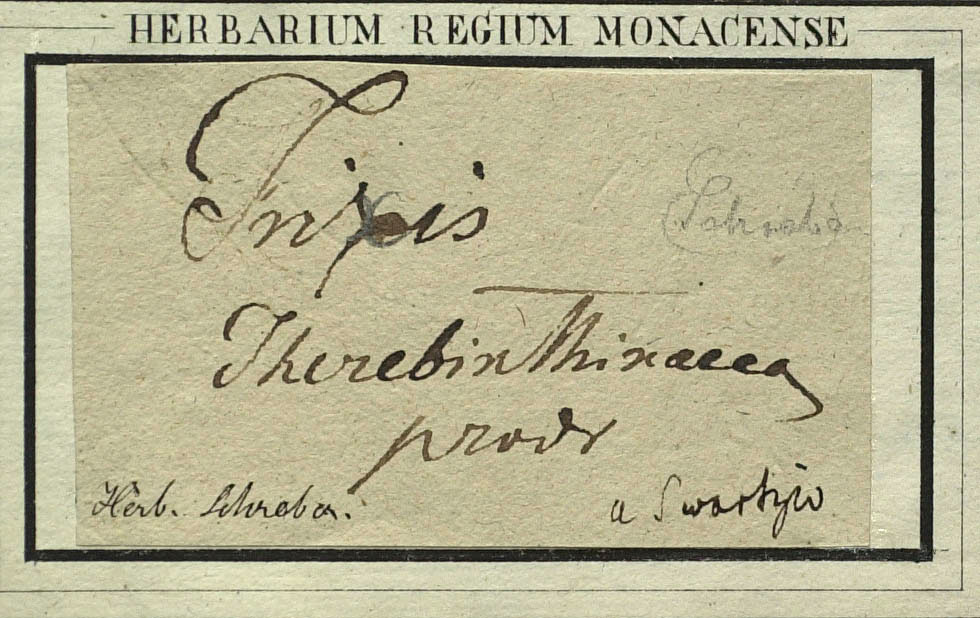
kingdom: Plantae
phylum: Tracheophyta
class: Magnoliopsida
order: Asterales
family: Asteraceae
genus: Clibadium
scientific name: Clibadium terebinthinaceum
